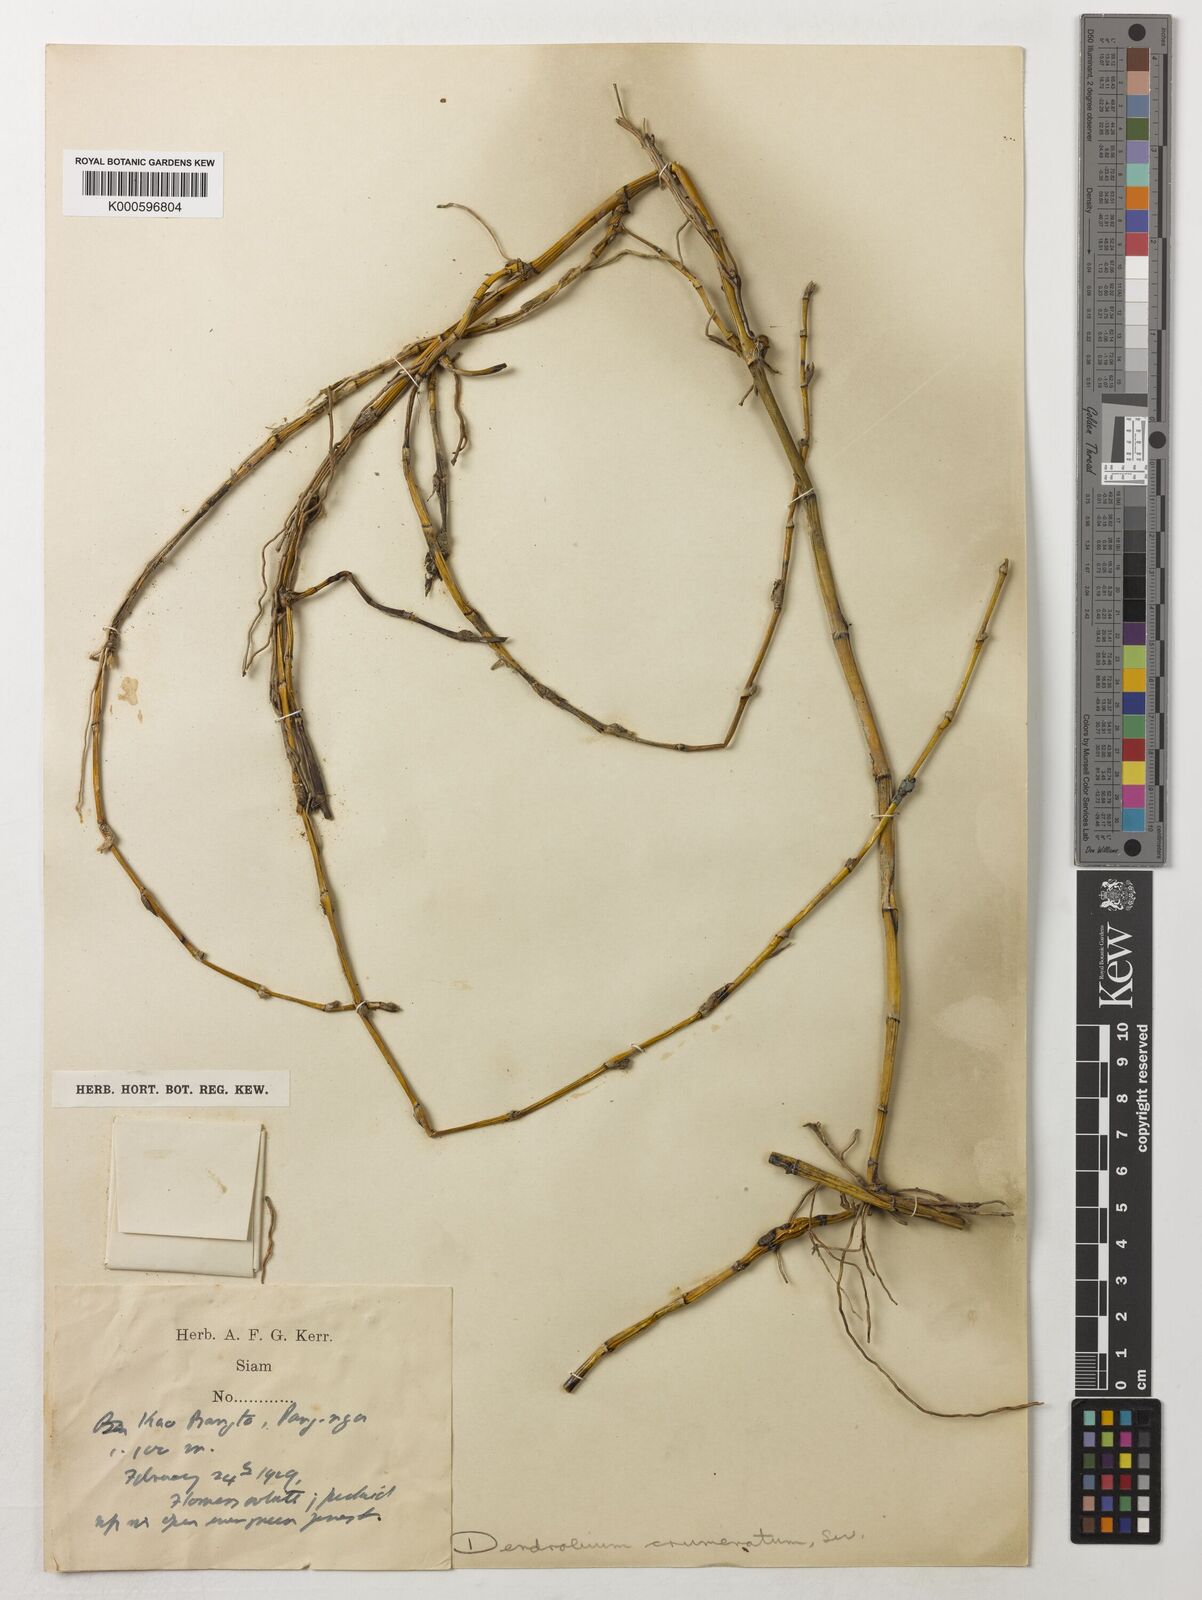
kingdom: Plantae
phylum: Tracheophyta
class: Liliopsida
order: Asparagales
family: Orchidaceae
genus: Dendrobium
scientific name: Dendrobium crumenatum
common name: Orchid
